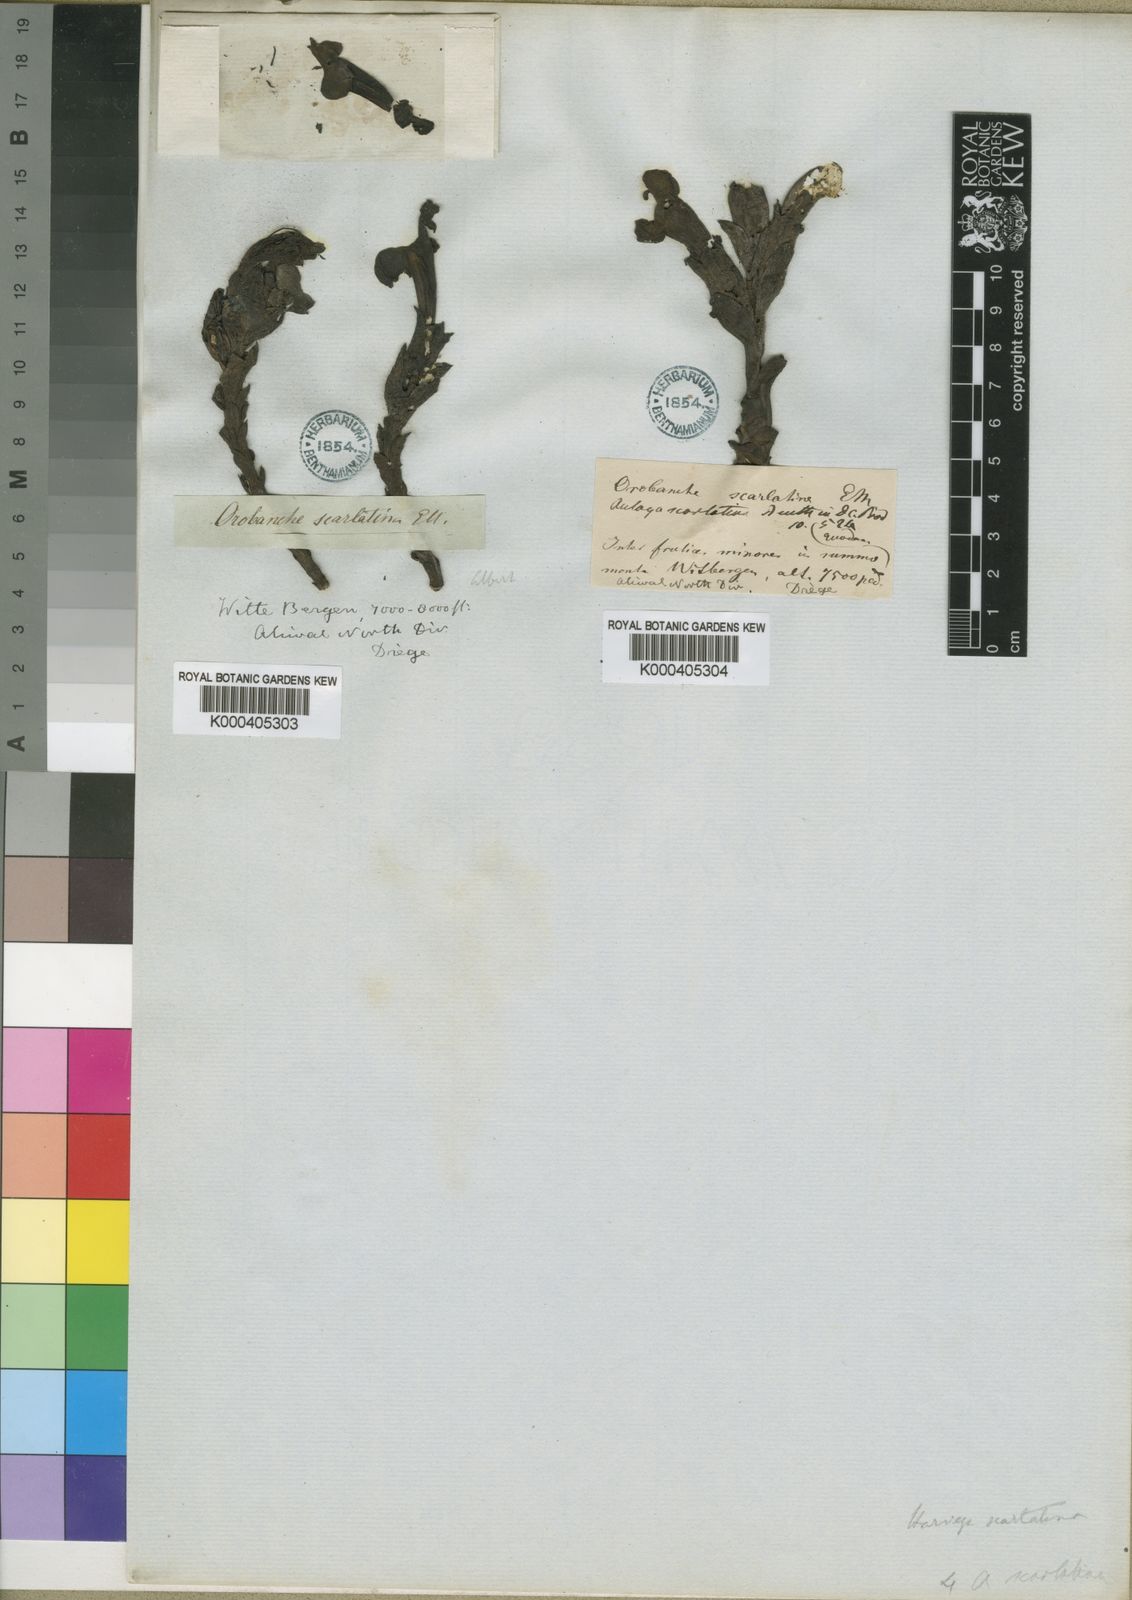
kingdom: Plantae
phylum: Tracheophyta
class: Magnoliopsida
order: Lamiales
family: Orobanchaceae
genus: Harveya
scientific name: Harveya
